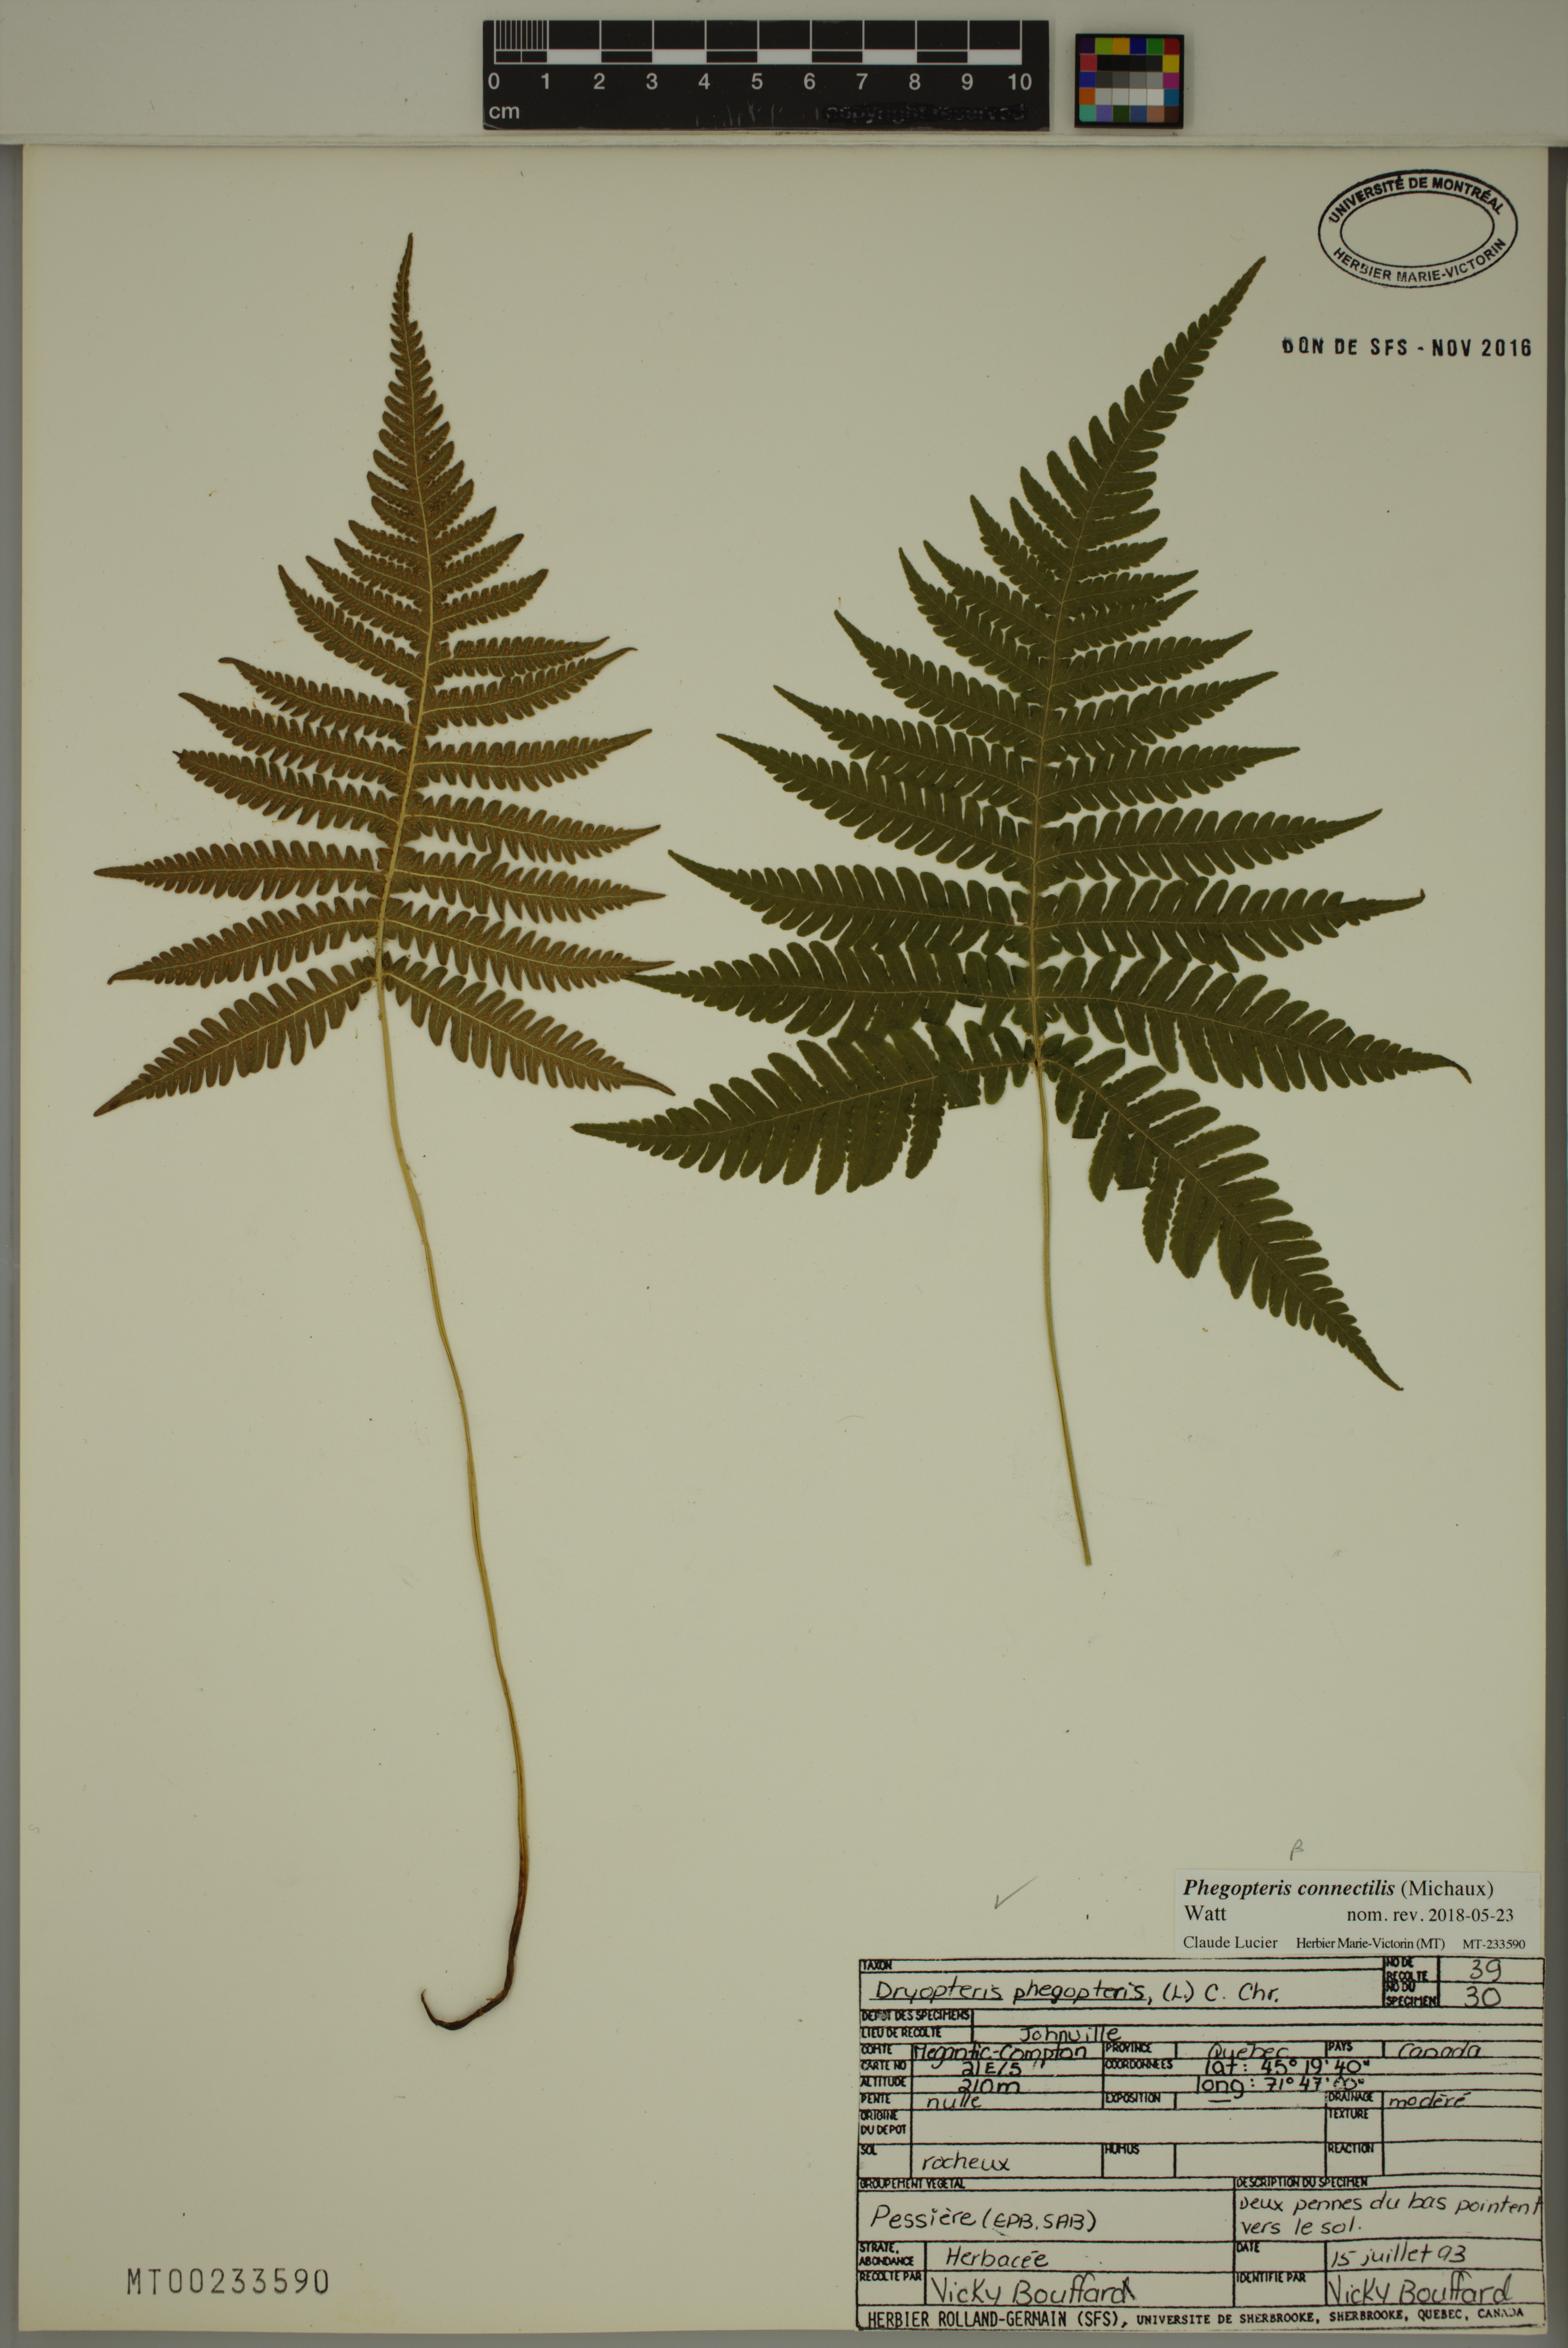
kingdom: Plantae
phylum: Tracheophyta
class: Polypodiopsida
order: Polypodiales
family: Thelypteridaceae
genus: Phegopteris
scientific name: Phegopteris connectilis
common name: Beech fern
